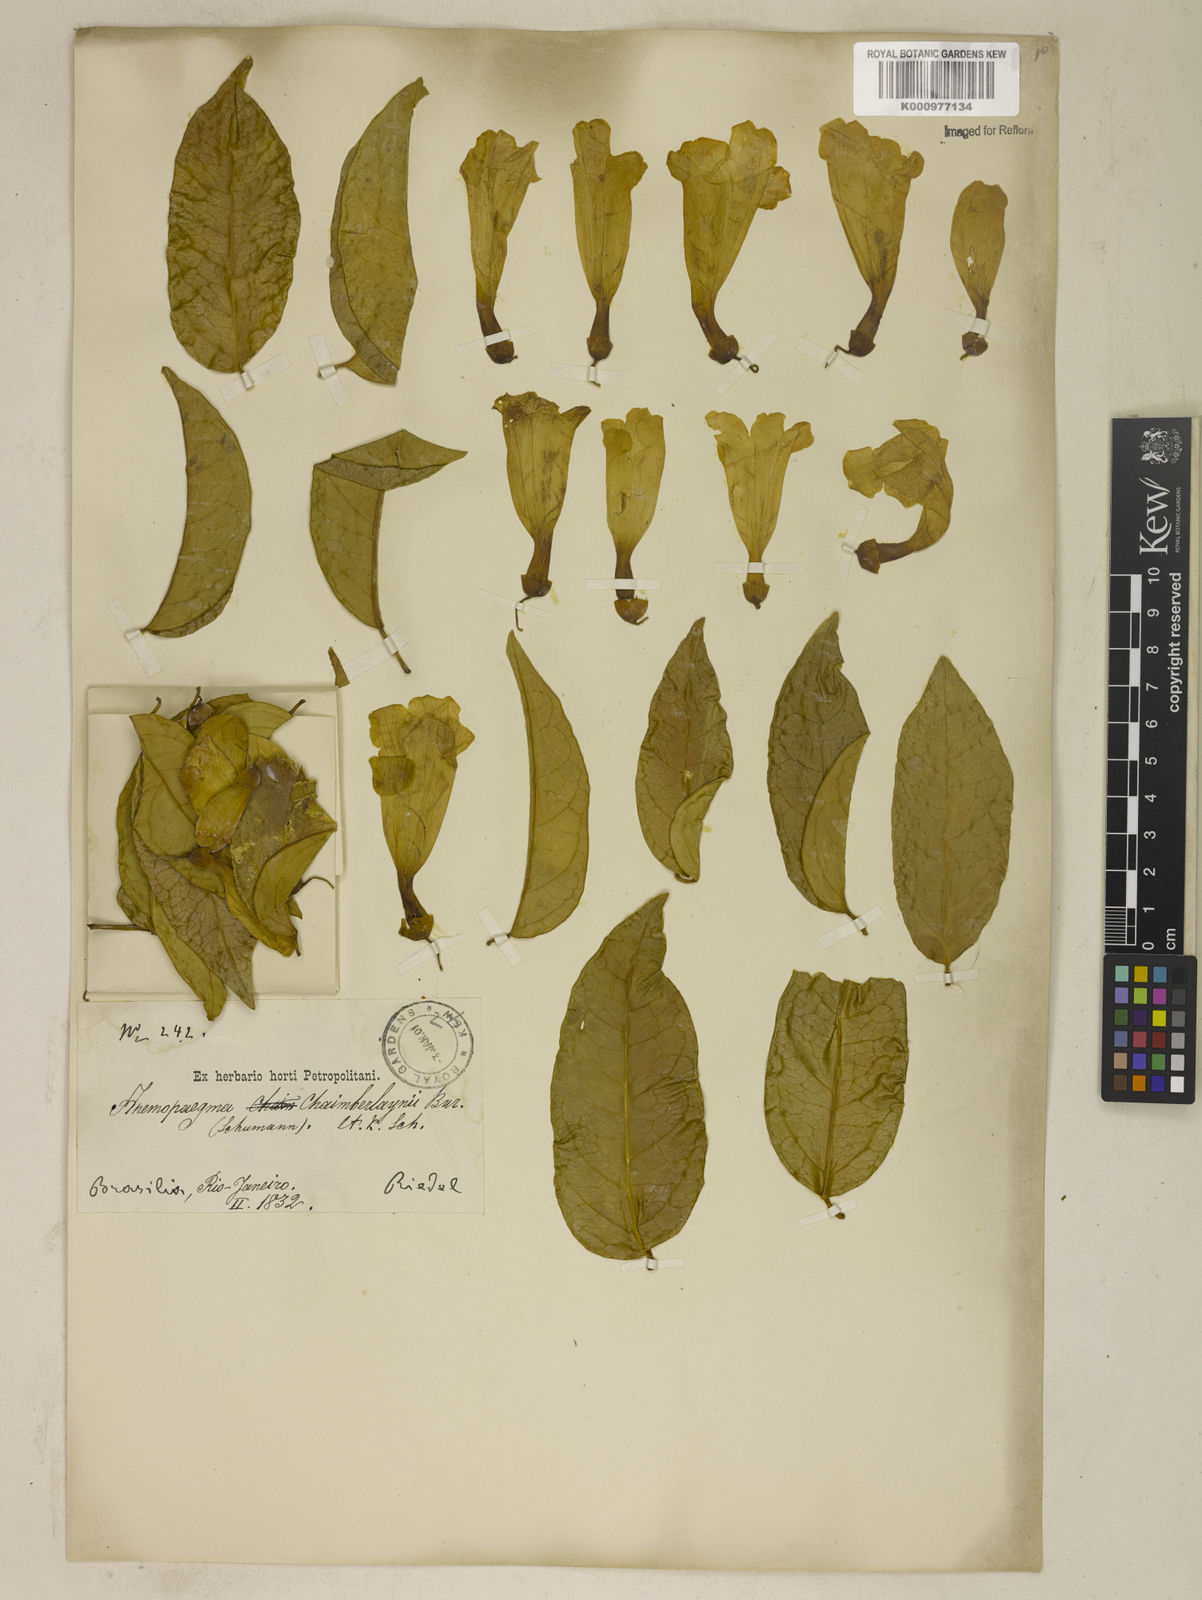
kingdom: Plantae
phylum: Tracheophyta
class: Magnoliopsida
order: Lamiales
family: Bignoniaceae
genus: Anemopaegma
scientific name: Anemopaegma chamberlaynii
